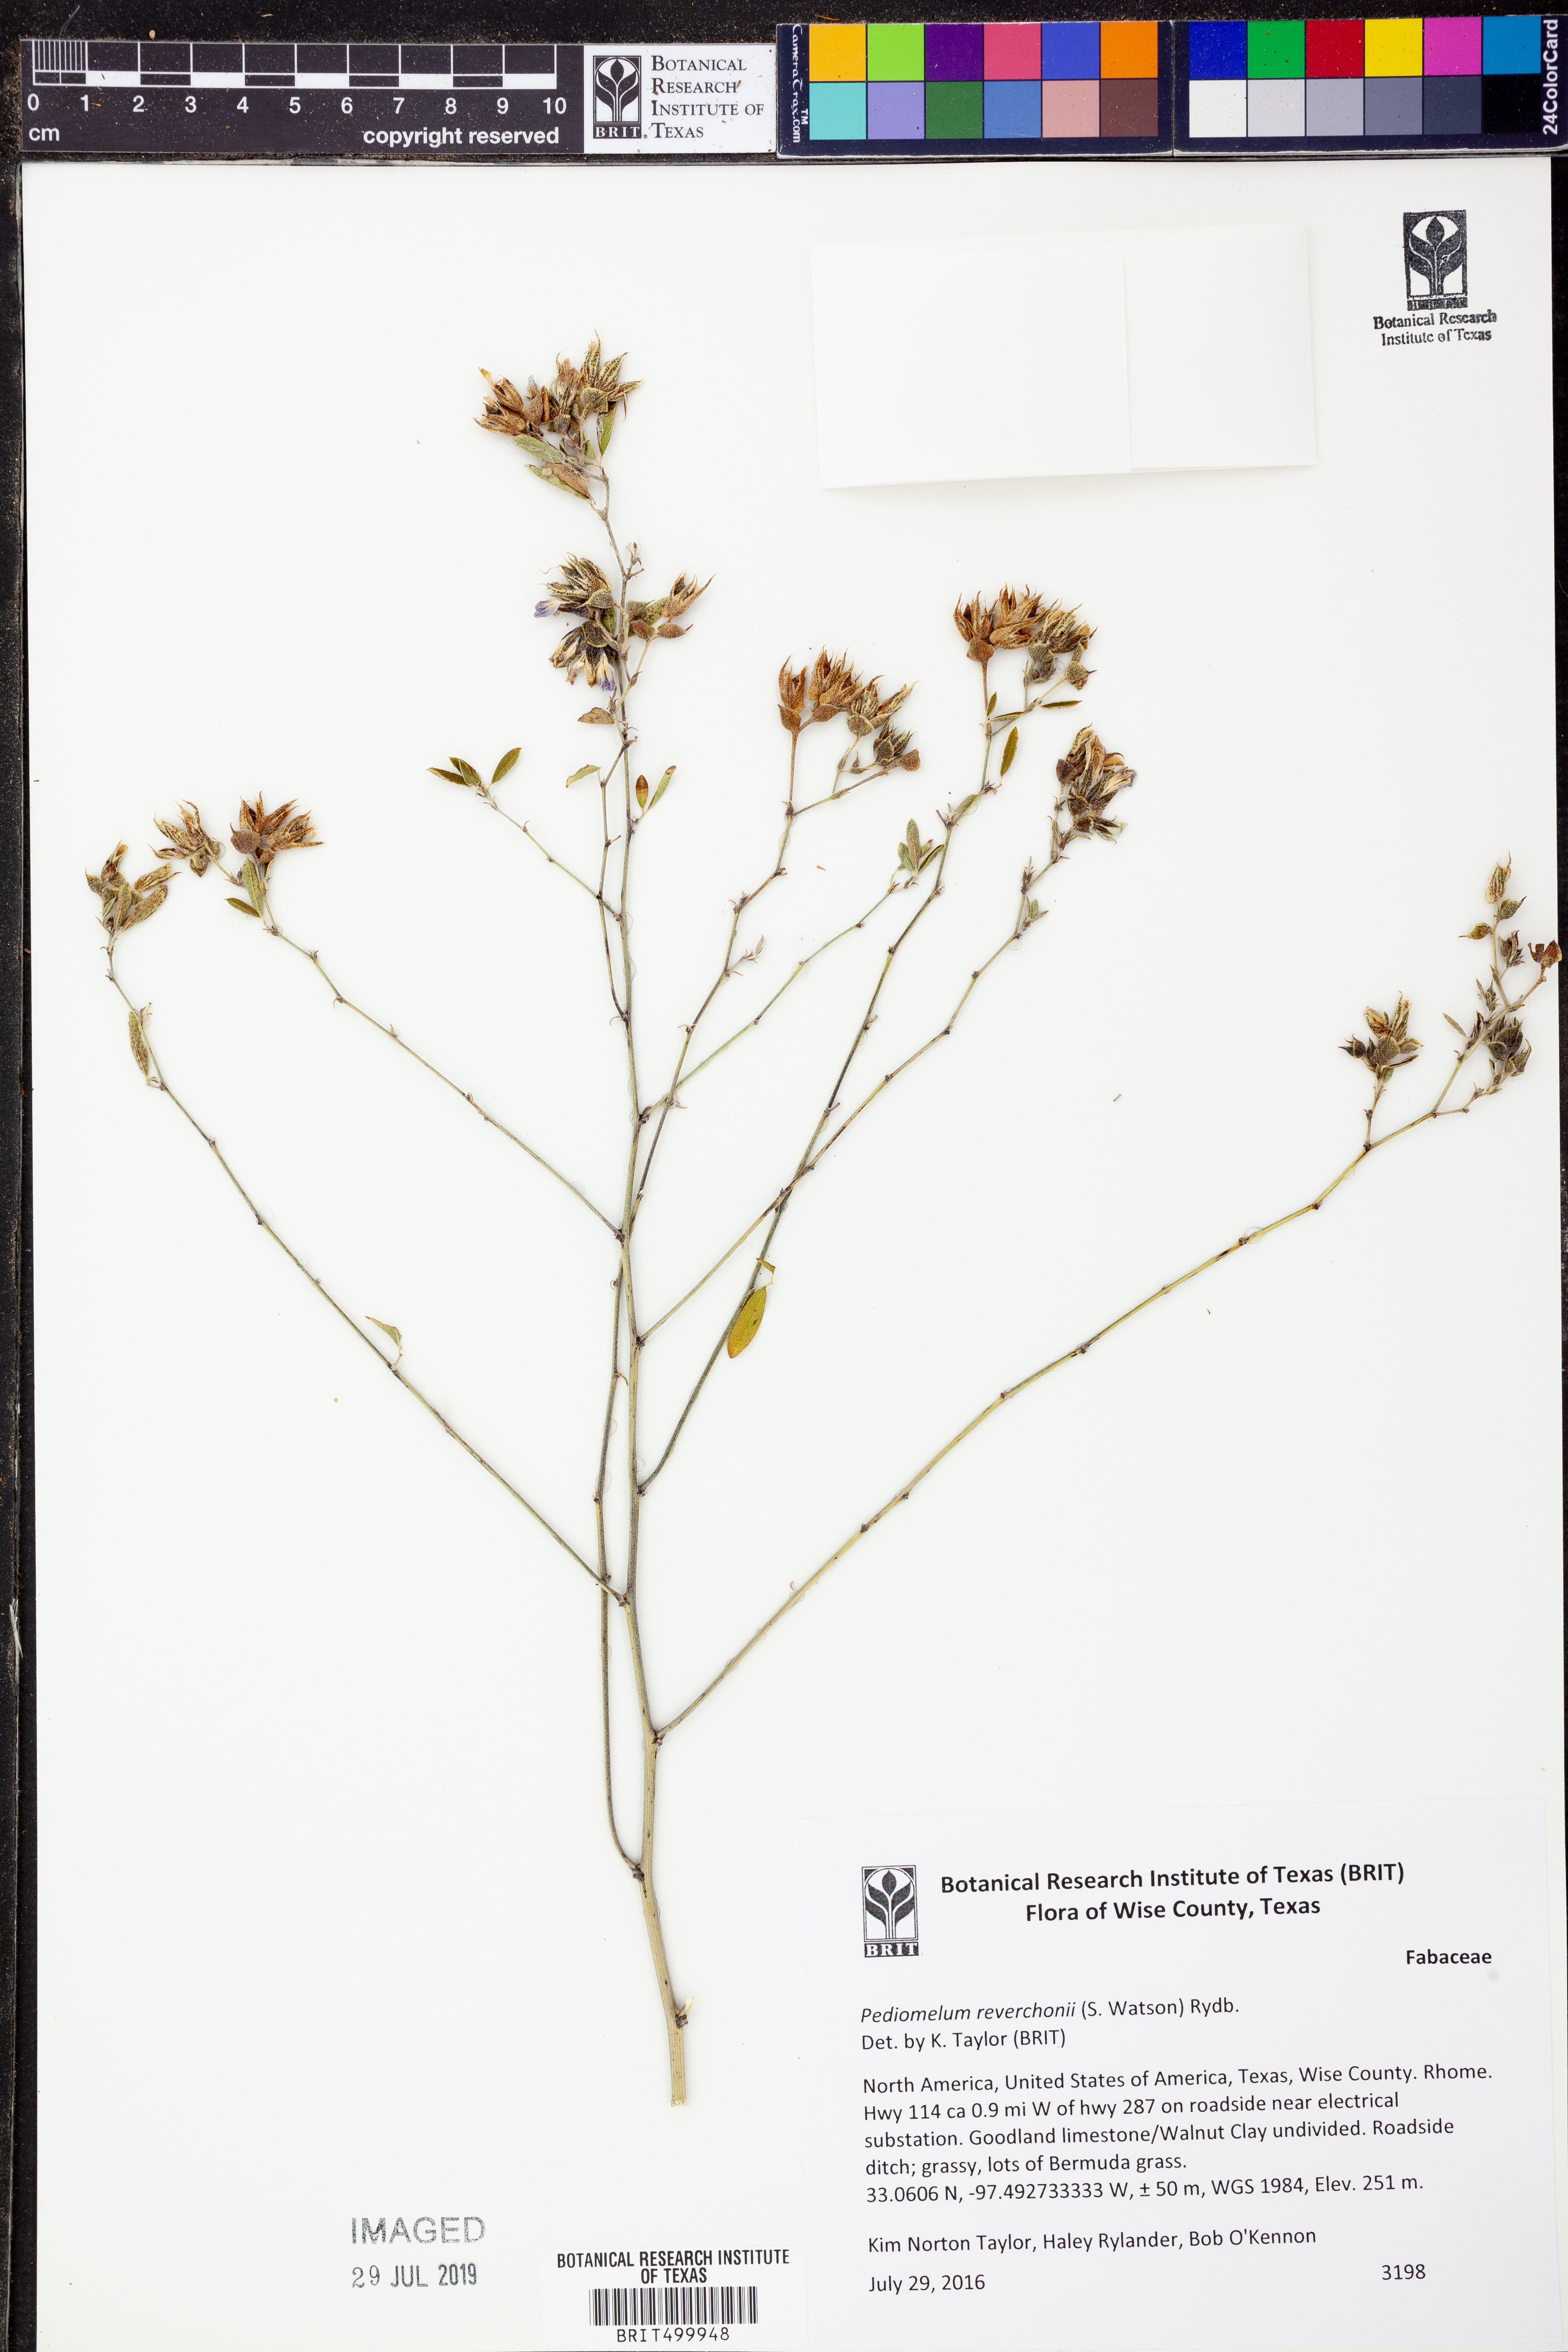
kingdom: Plantae
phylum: Tracheophyta
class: Magnoliopsida
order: Fabales
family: Fabaceae
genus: Pediomelum
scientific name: Pediomelum reverchonii
